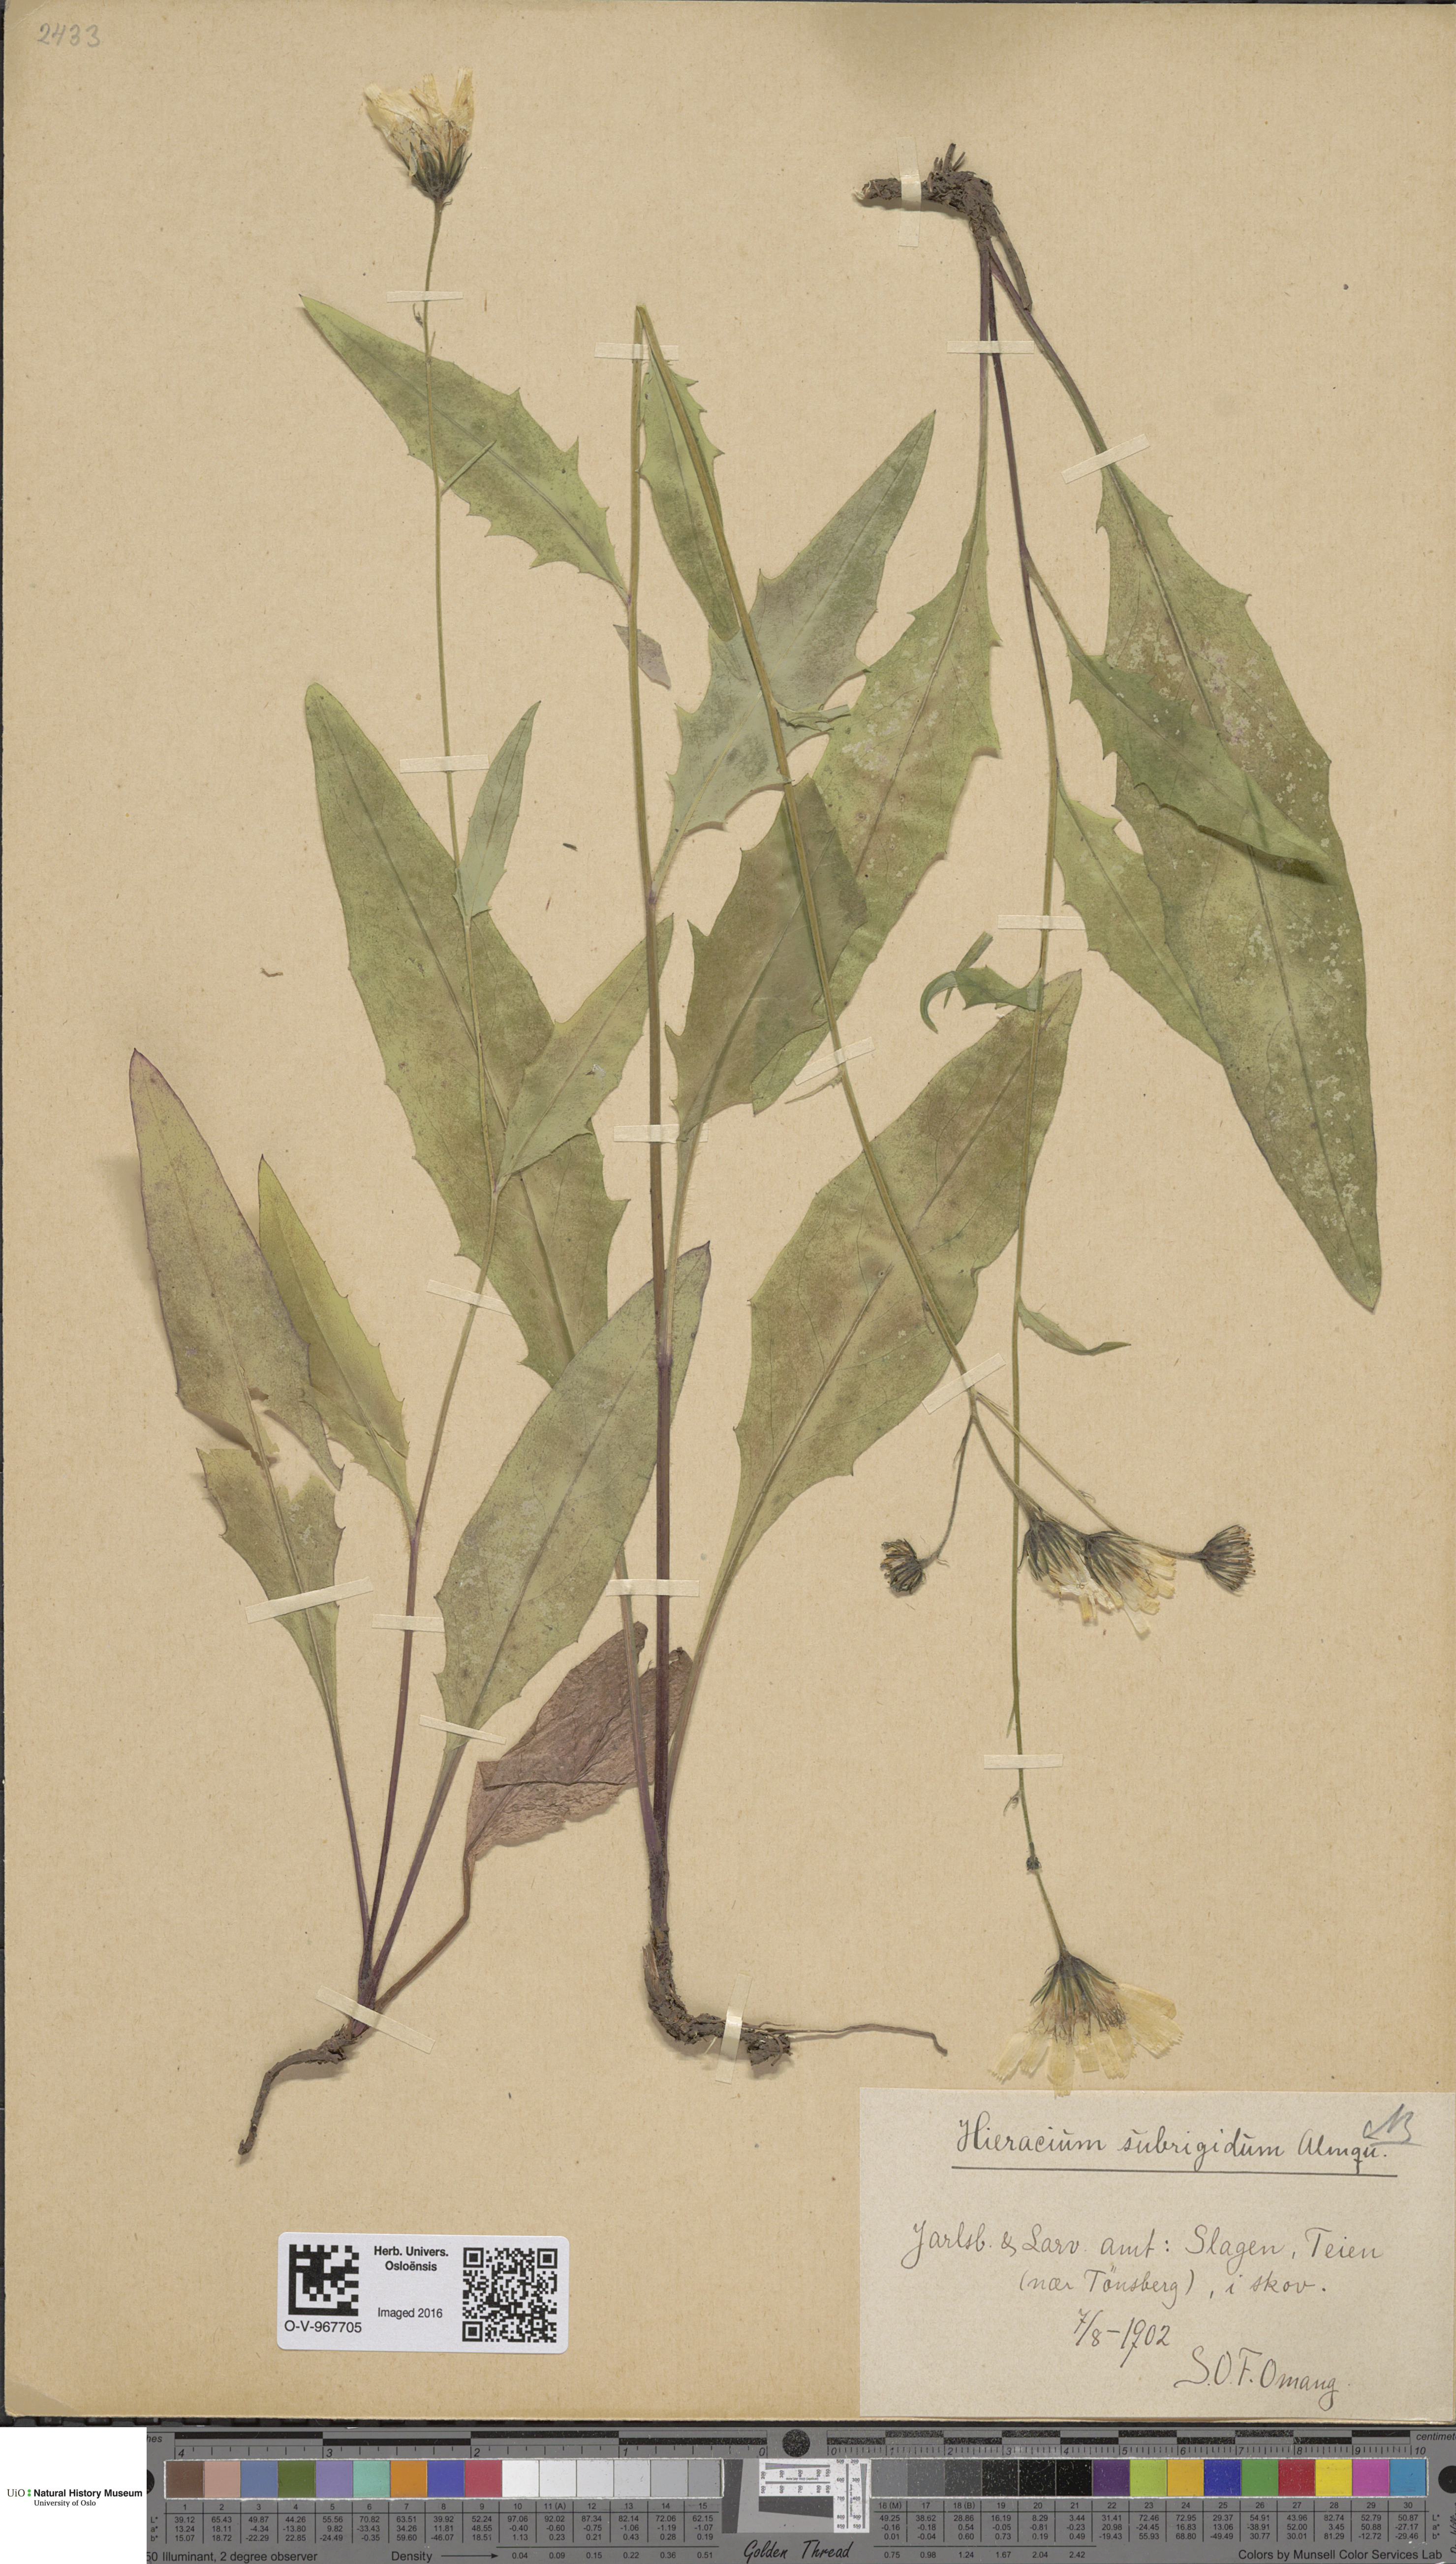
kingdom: Plantae
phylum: Tracheophyta
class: Magnoliopsida
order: Asterales
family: Asteraceae
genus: Hieracium
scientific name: Hieracium subrigidum
